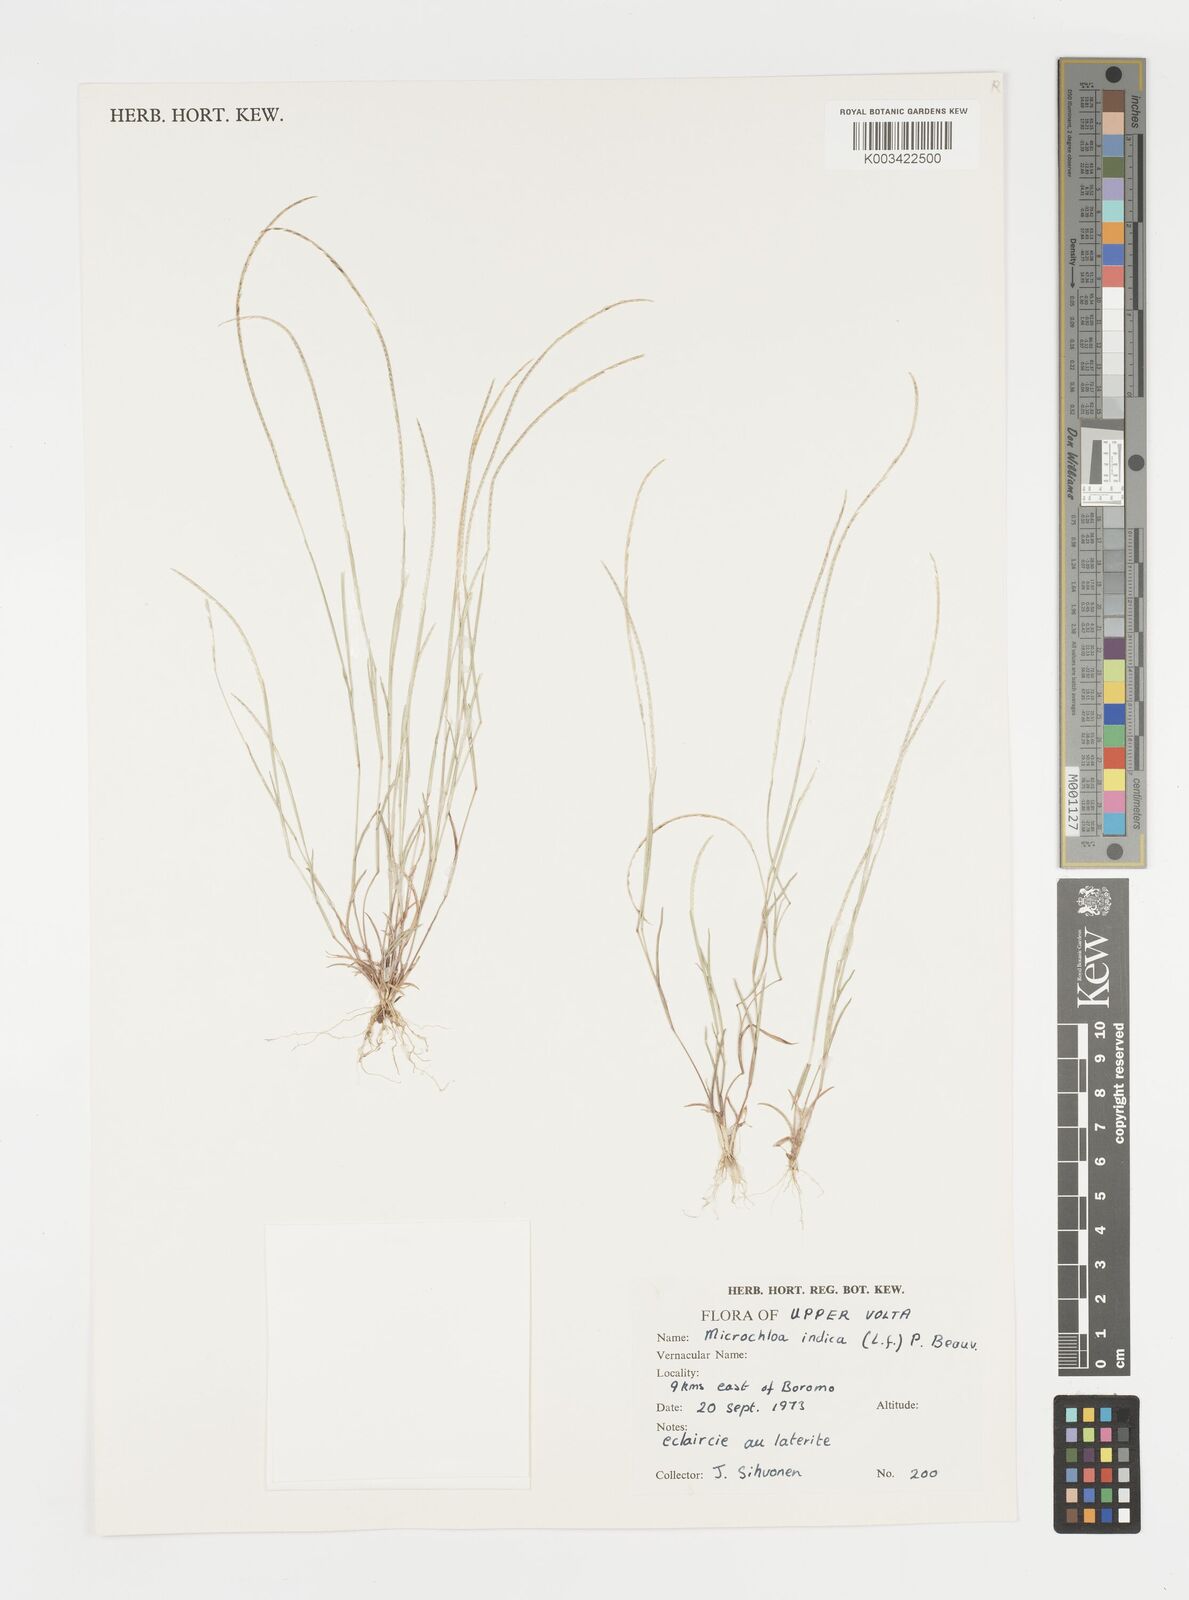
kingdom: Plantae
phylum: Tracheophyta
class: Liliopsida
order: Poales
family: Poaceae
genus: Microchloa
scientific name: Microchloa indica
